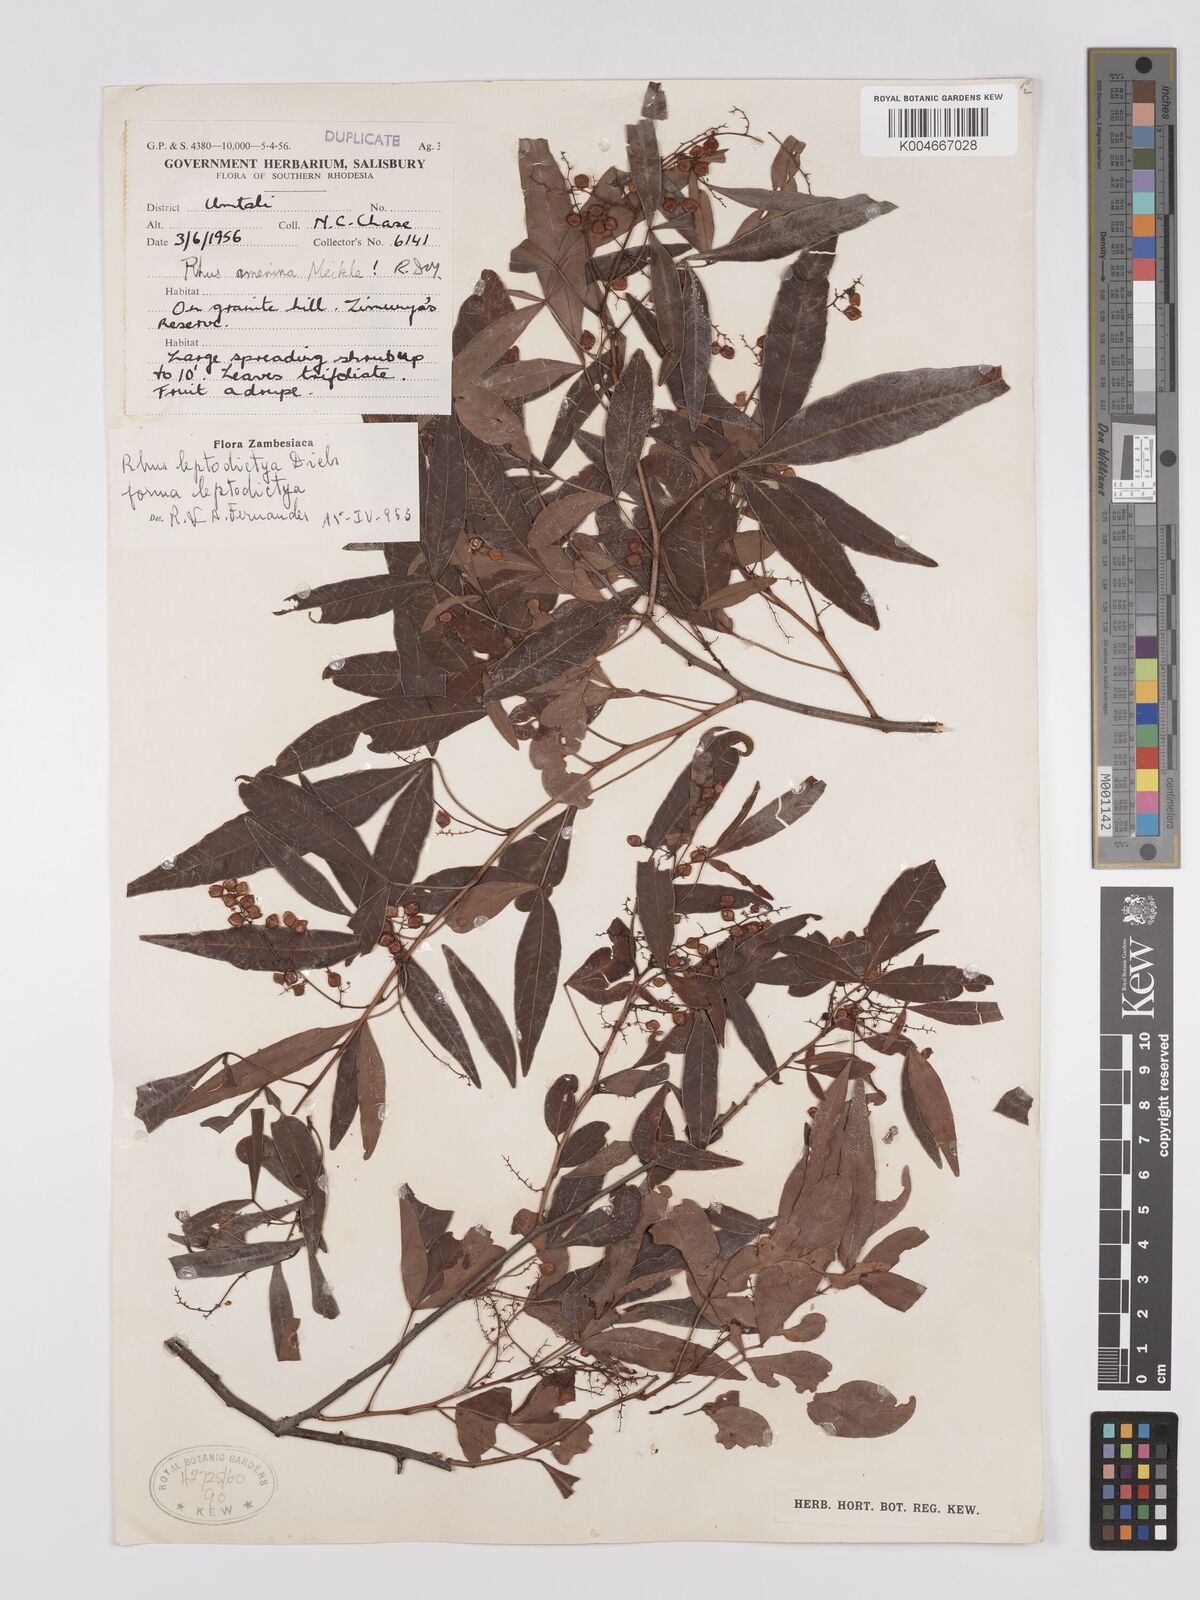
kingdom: Plantae
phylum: Tracheophyta
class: Magnoliopsida
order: Sapindales
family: Anacardiaceae
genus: Searsia
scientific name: Searsia leptodictya
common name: Mountain karee
